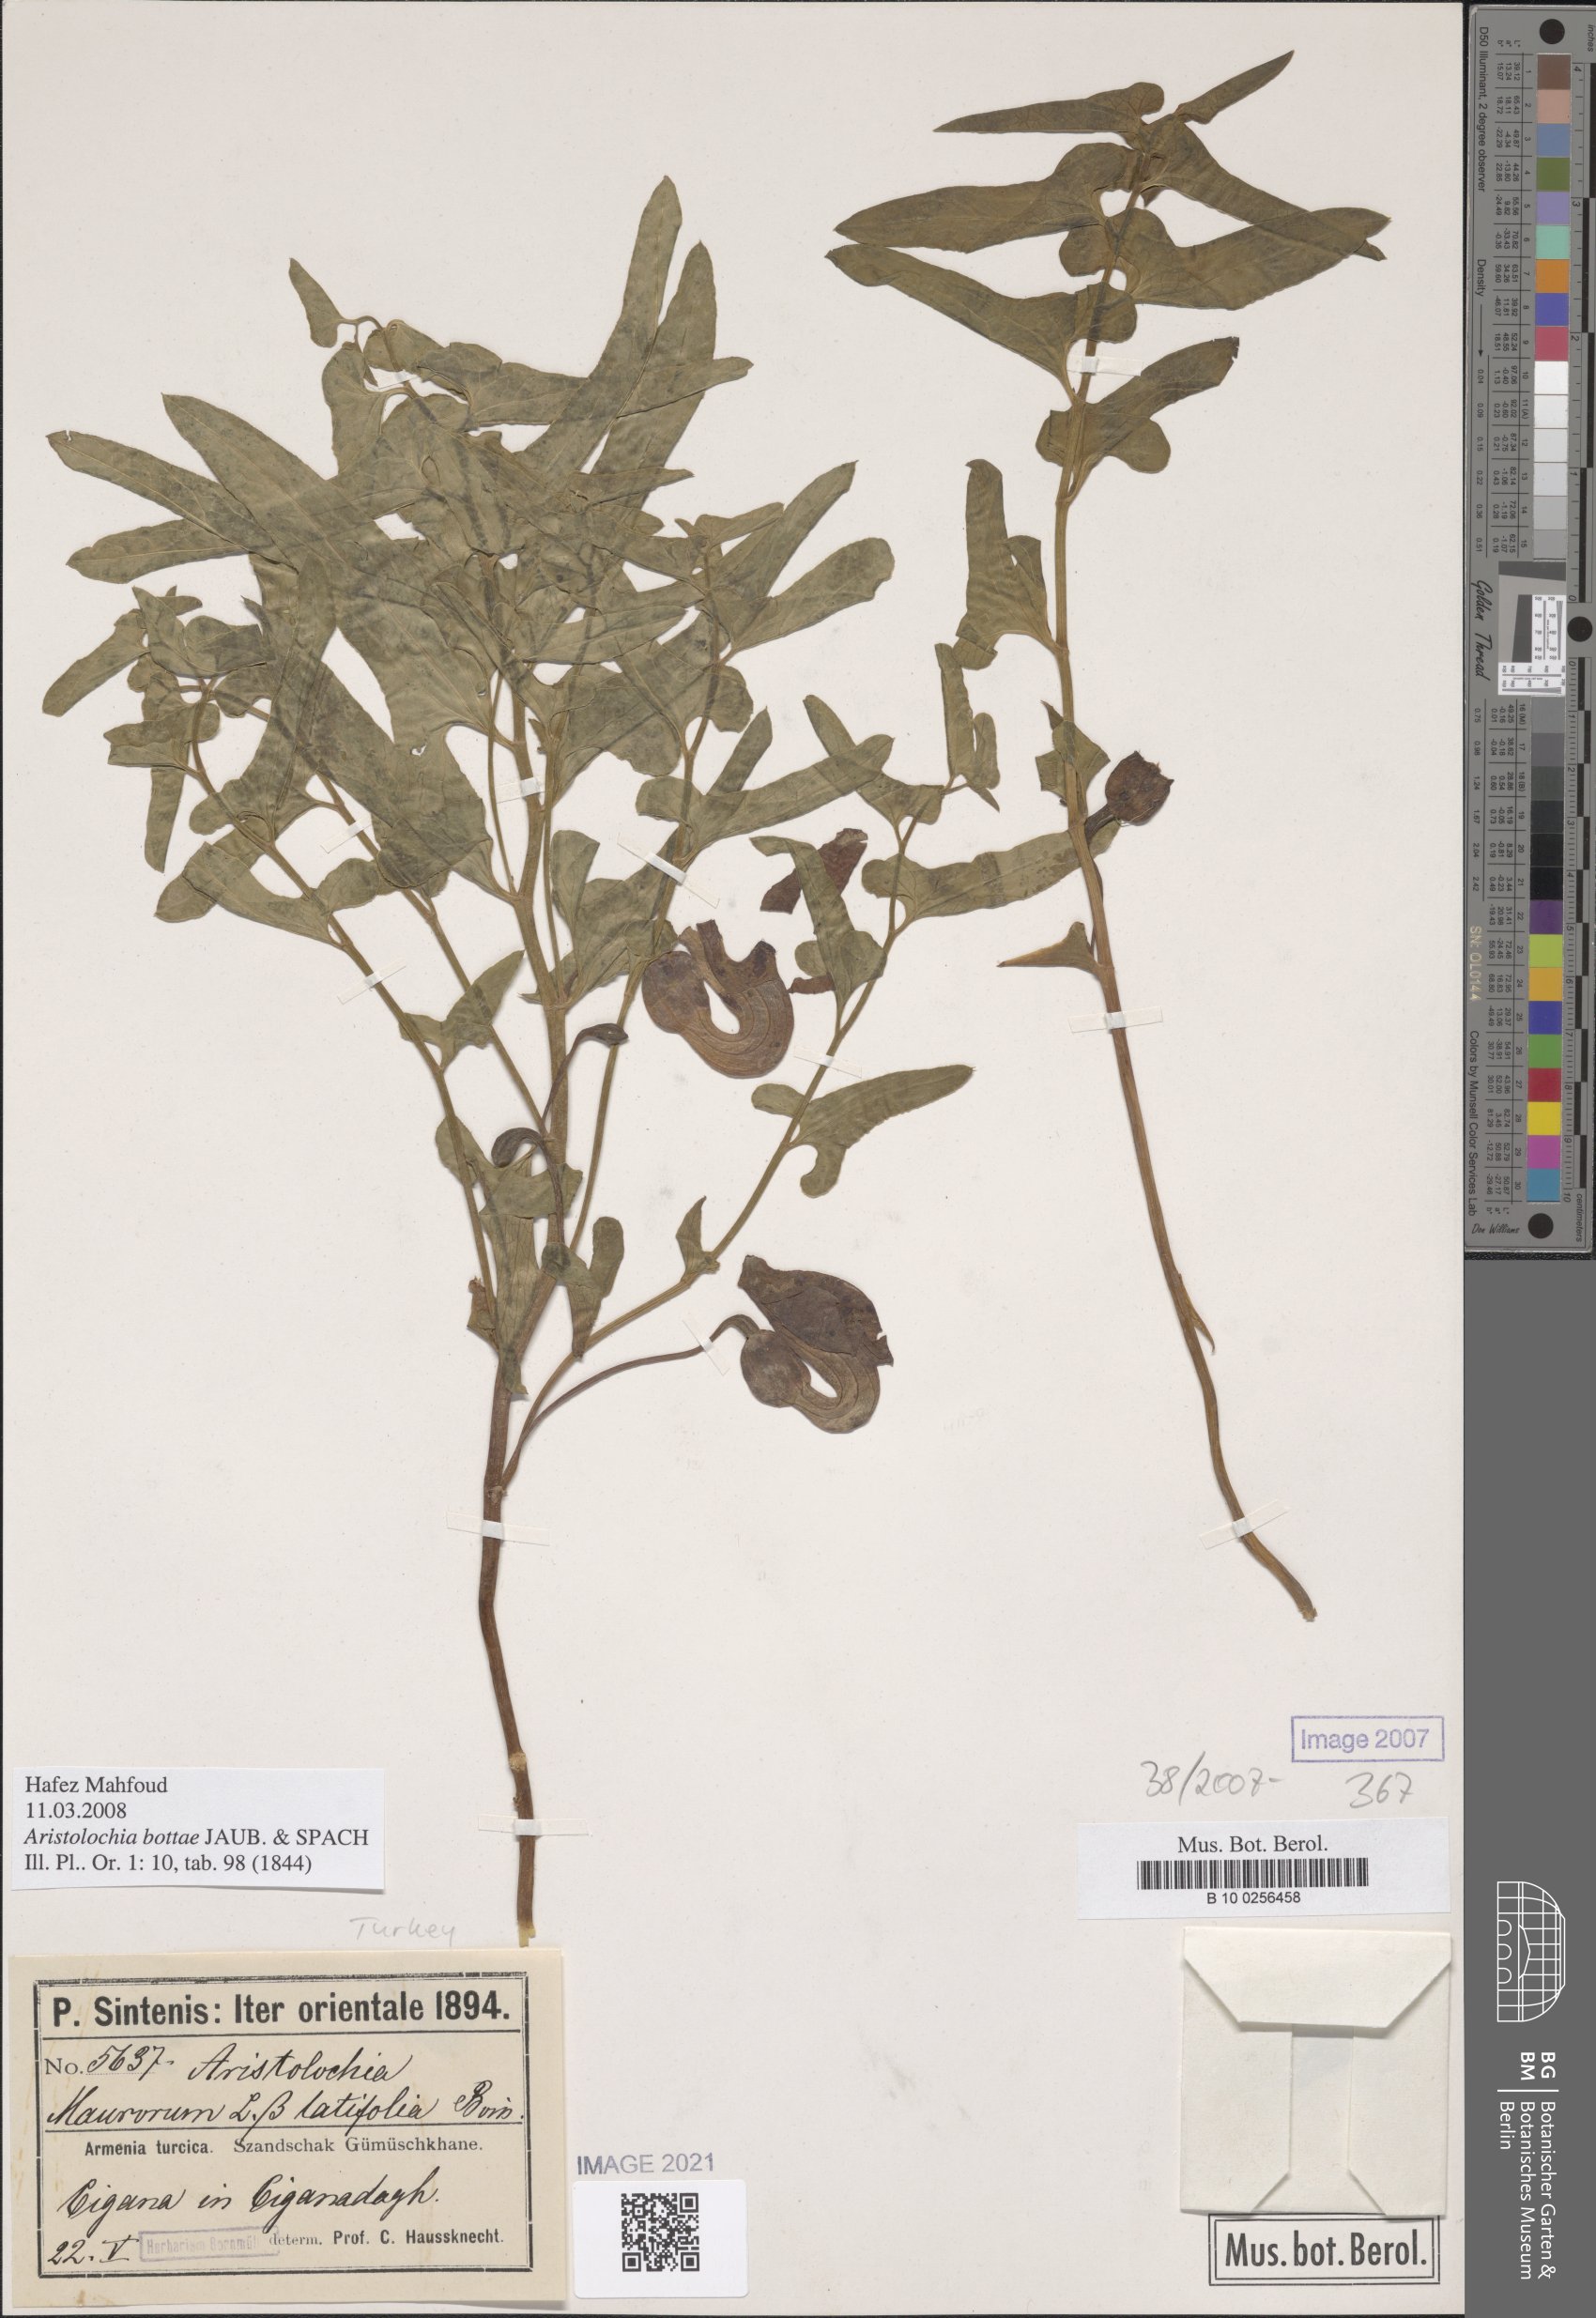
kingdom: Plantae
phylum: Tracheophyta
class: Magnoliopsida
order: Piperales
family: Aristolochiaceae
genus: Aristolochia
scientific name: Aristolochia bottae
